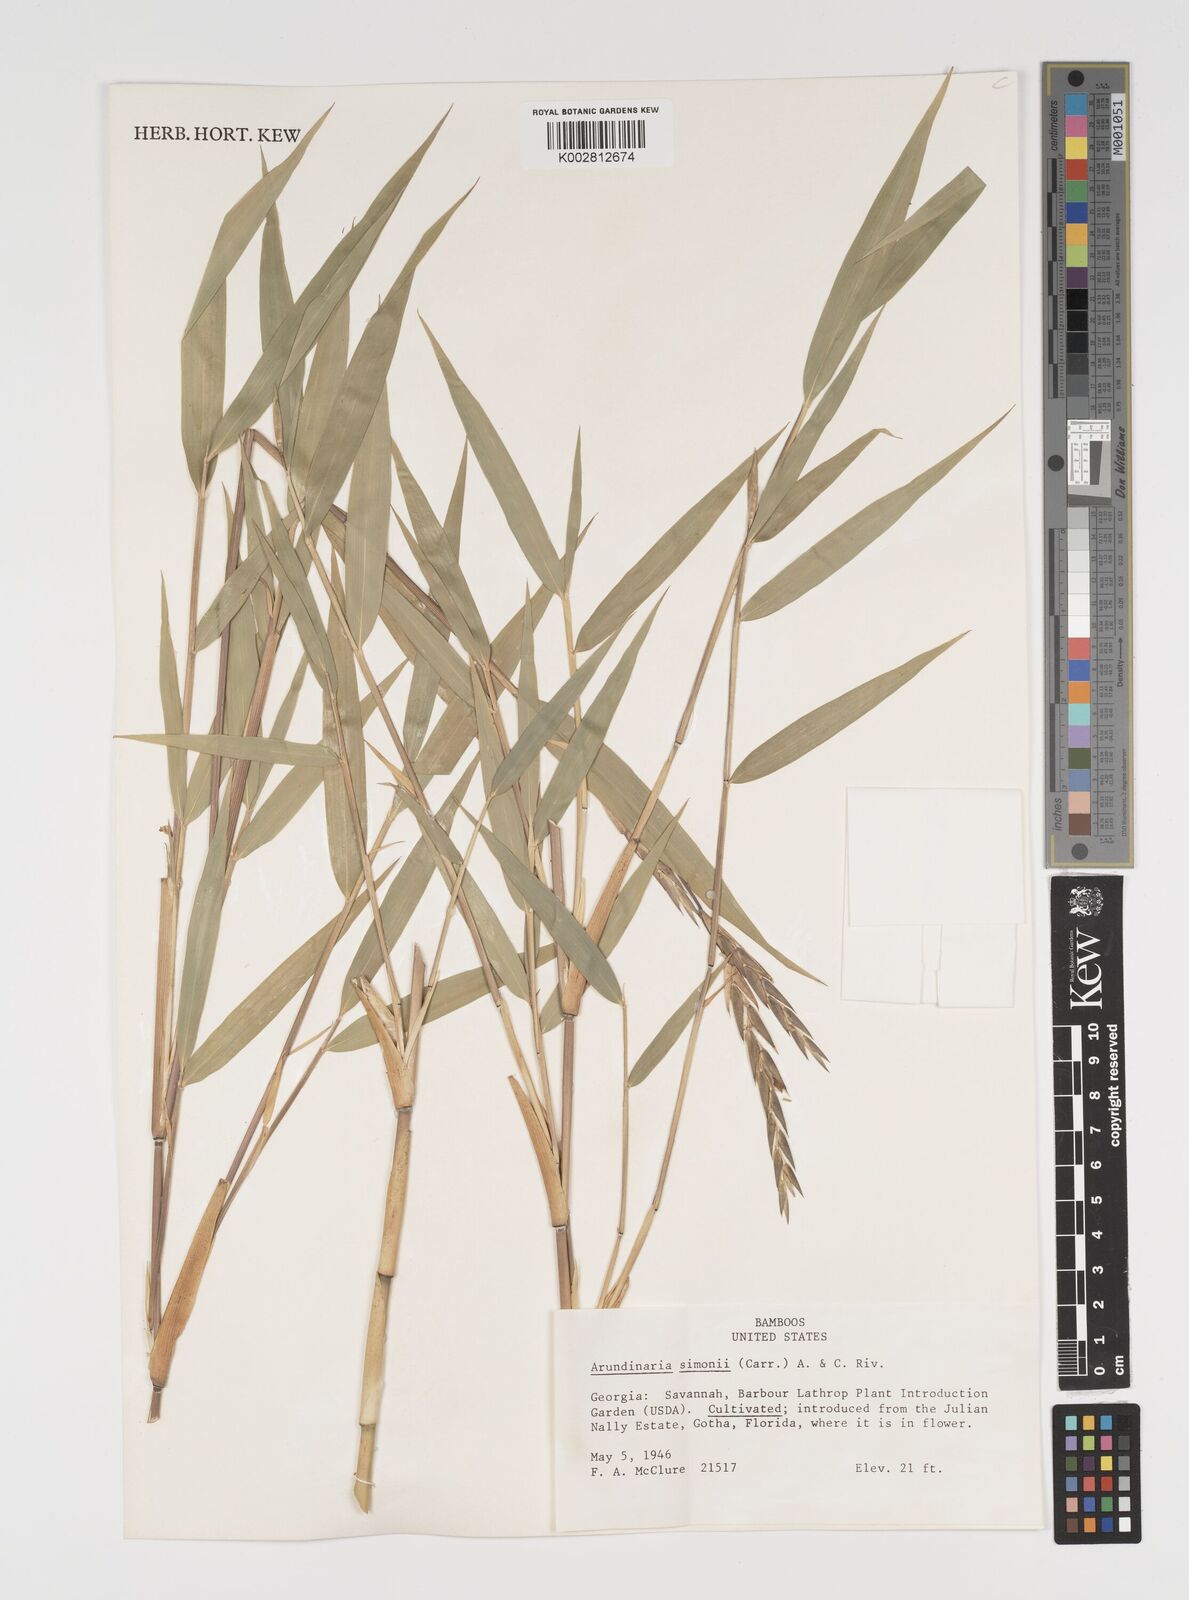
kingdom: Plantae
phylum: Tracheophyta
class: Liliopsida
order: Poales
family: Poaceae
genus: Pleioblastus
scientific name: Pleioblastus simonii
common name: Simon bamboo
